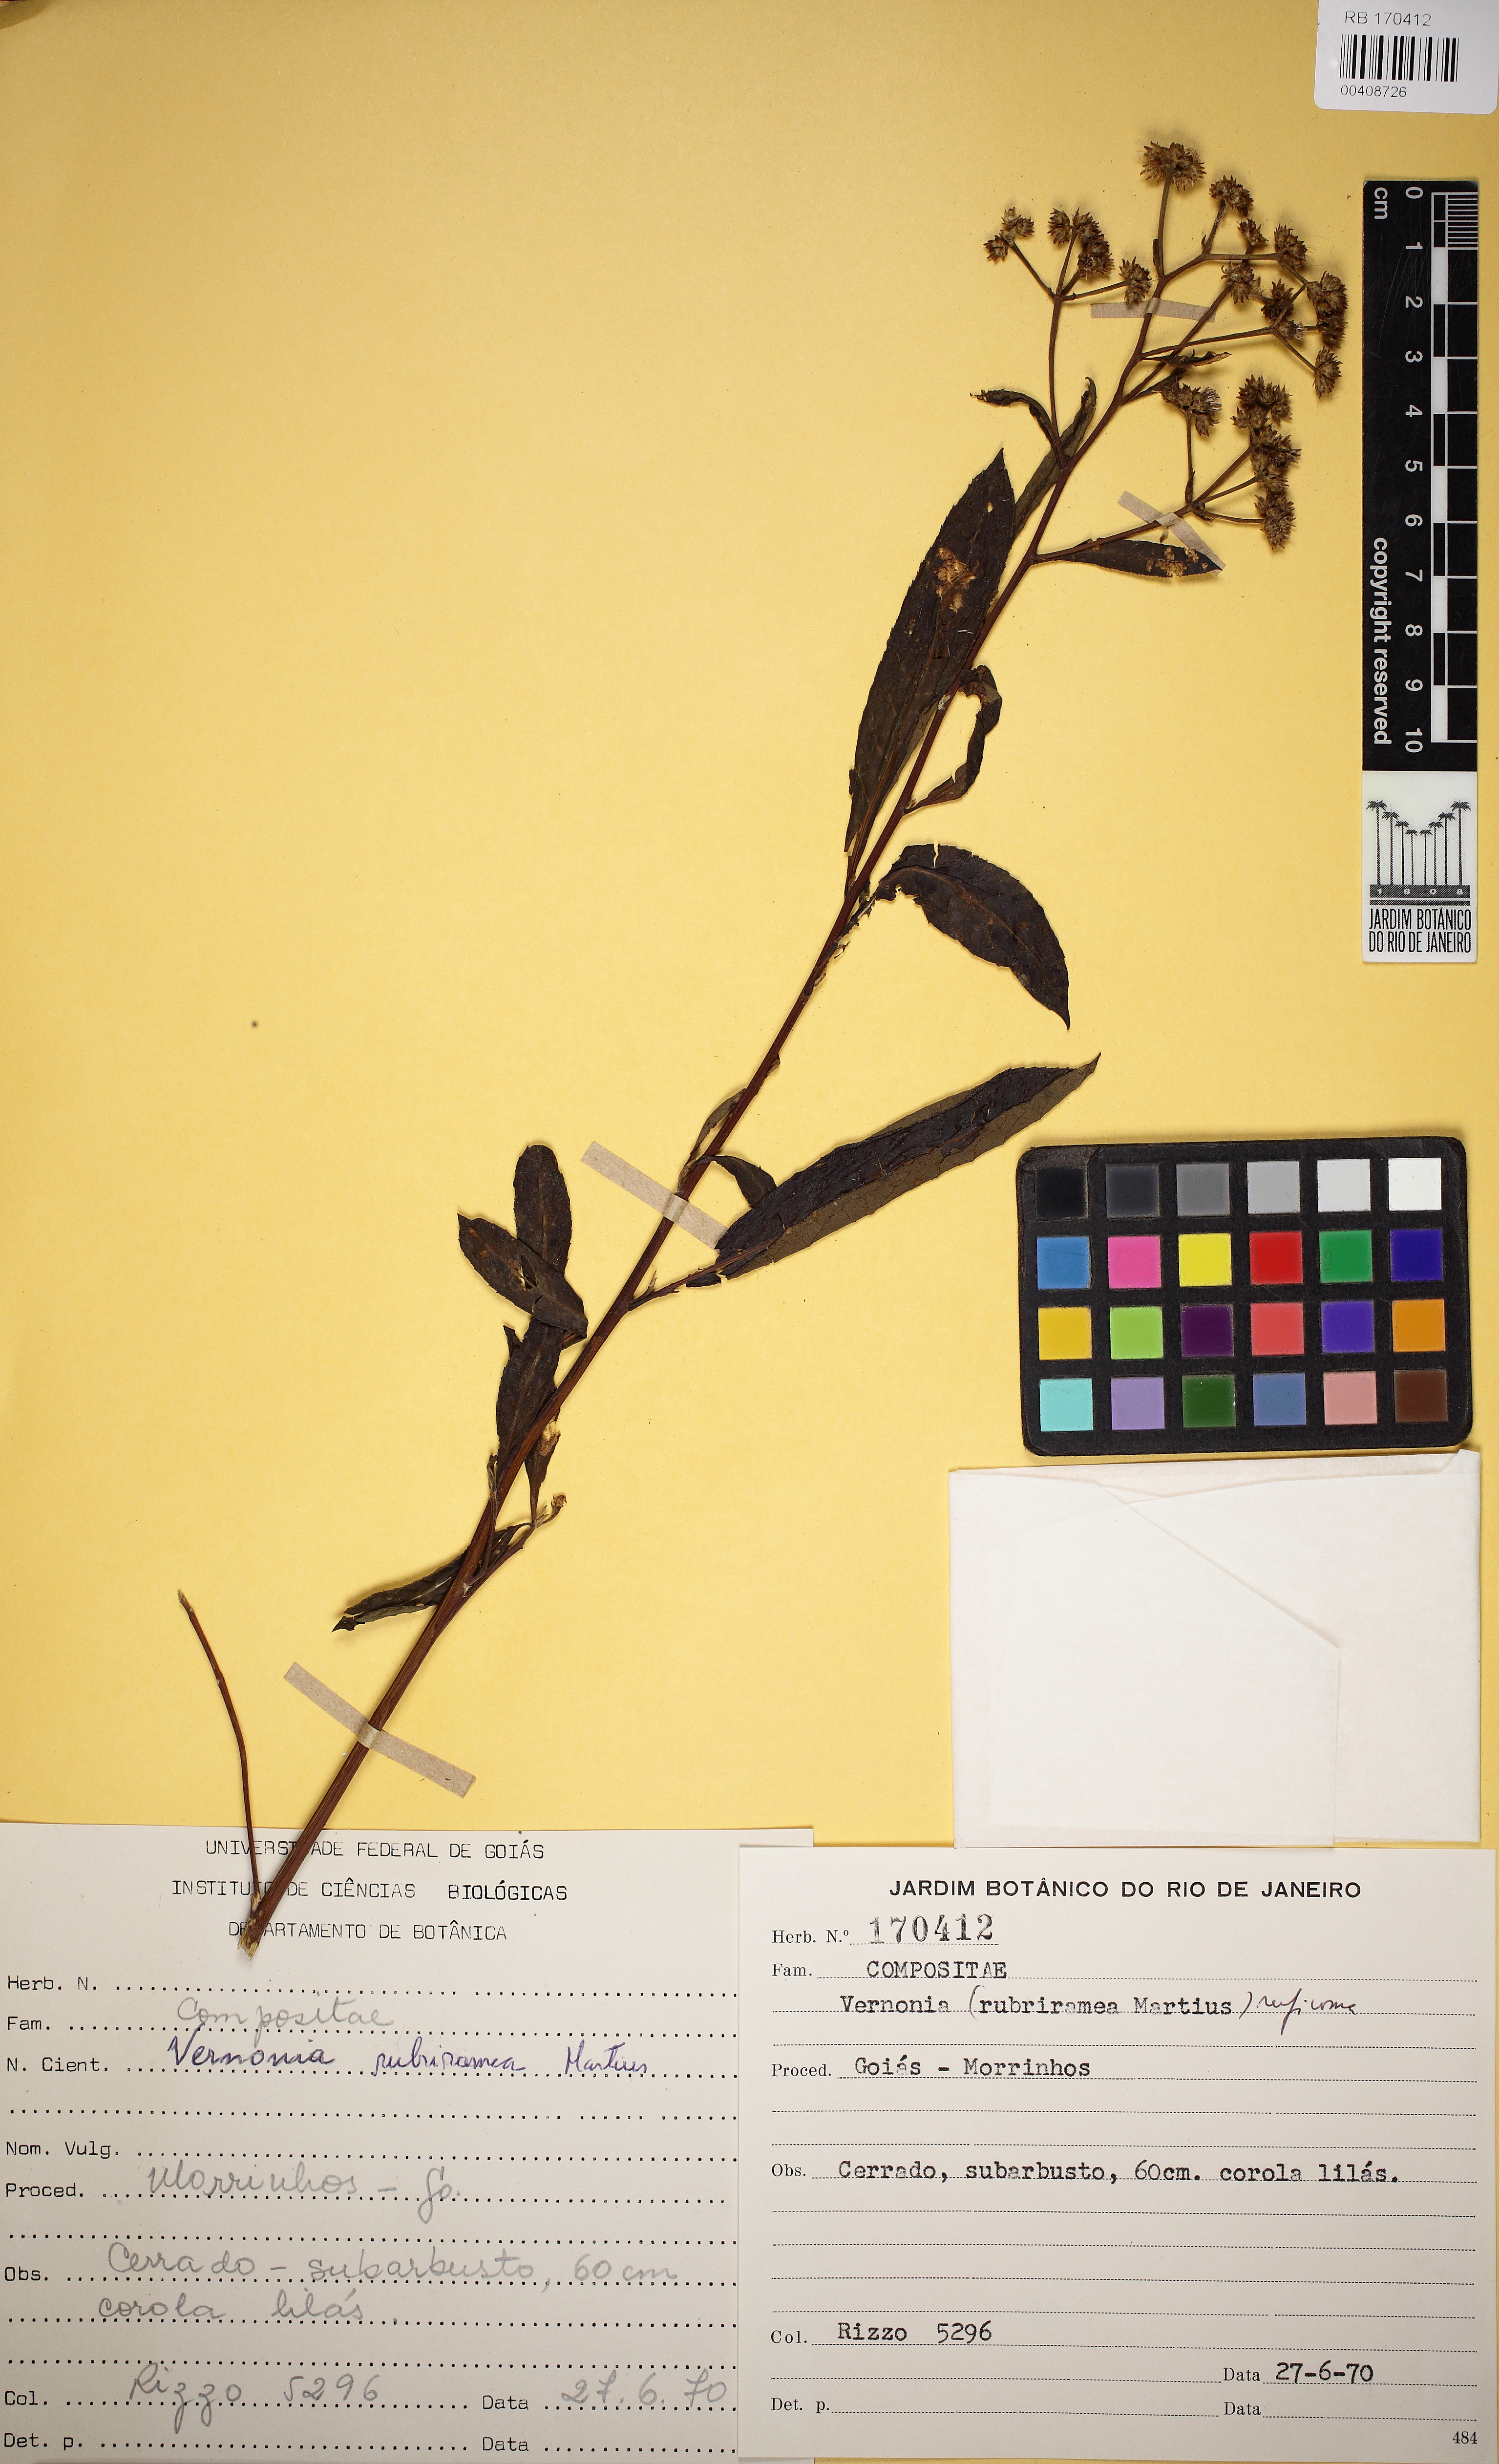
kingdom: Plantae
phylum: Tracheophyta
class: Magnoliopsida
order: Asterales
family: Asteraceae
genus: Vernonanthura
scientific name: Vernonanthura rubriramea
